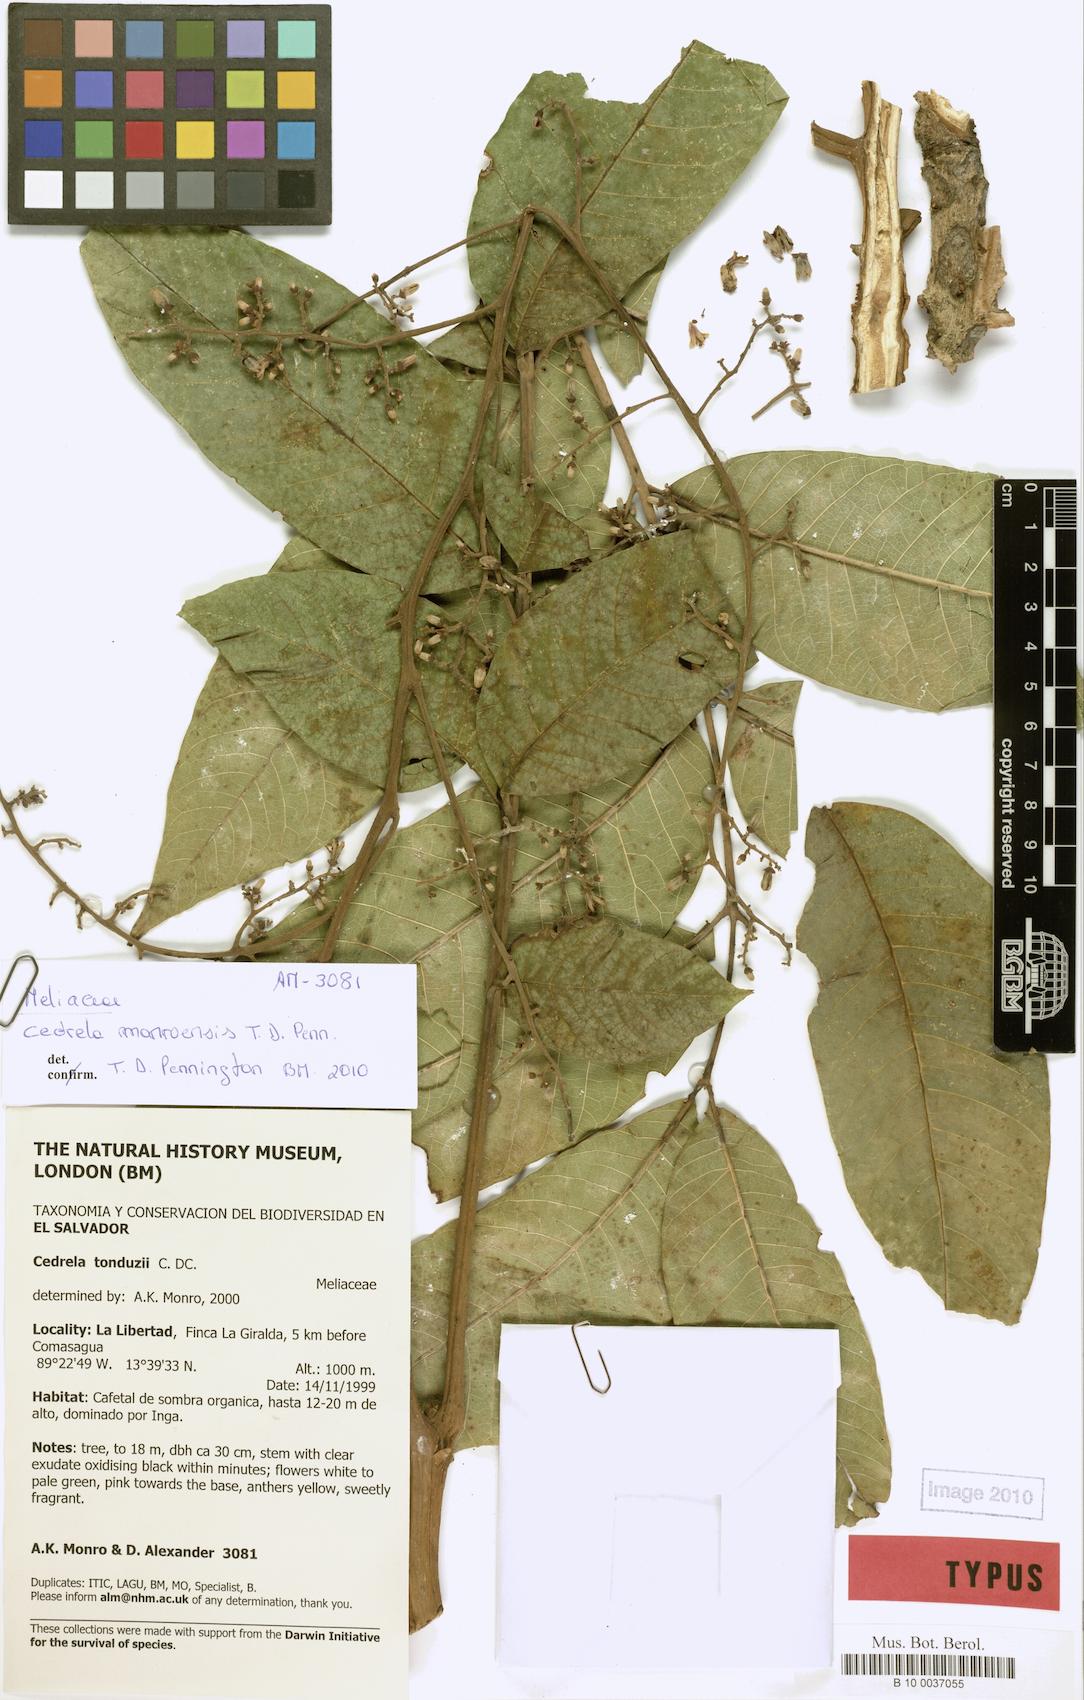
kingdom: Plantae
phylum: Tracheophyta
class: Magnoliopsida
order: Sapindales
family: Meliaceae
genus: Cedrela
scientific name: Cedrela monroensis
